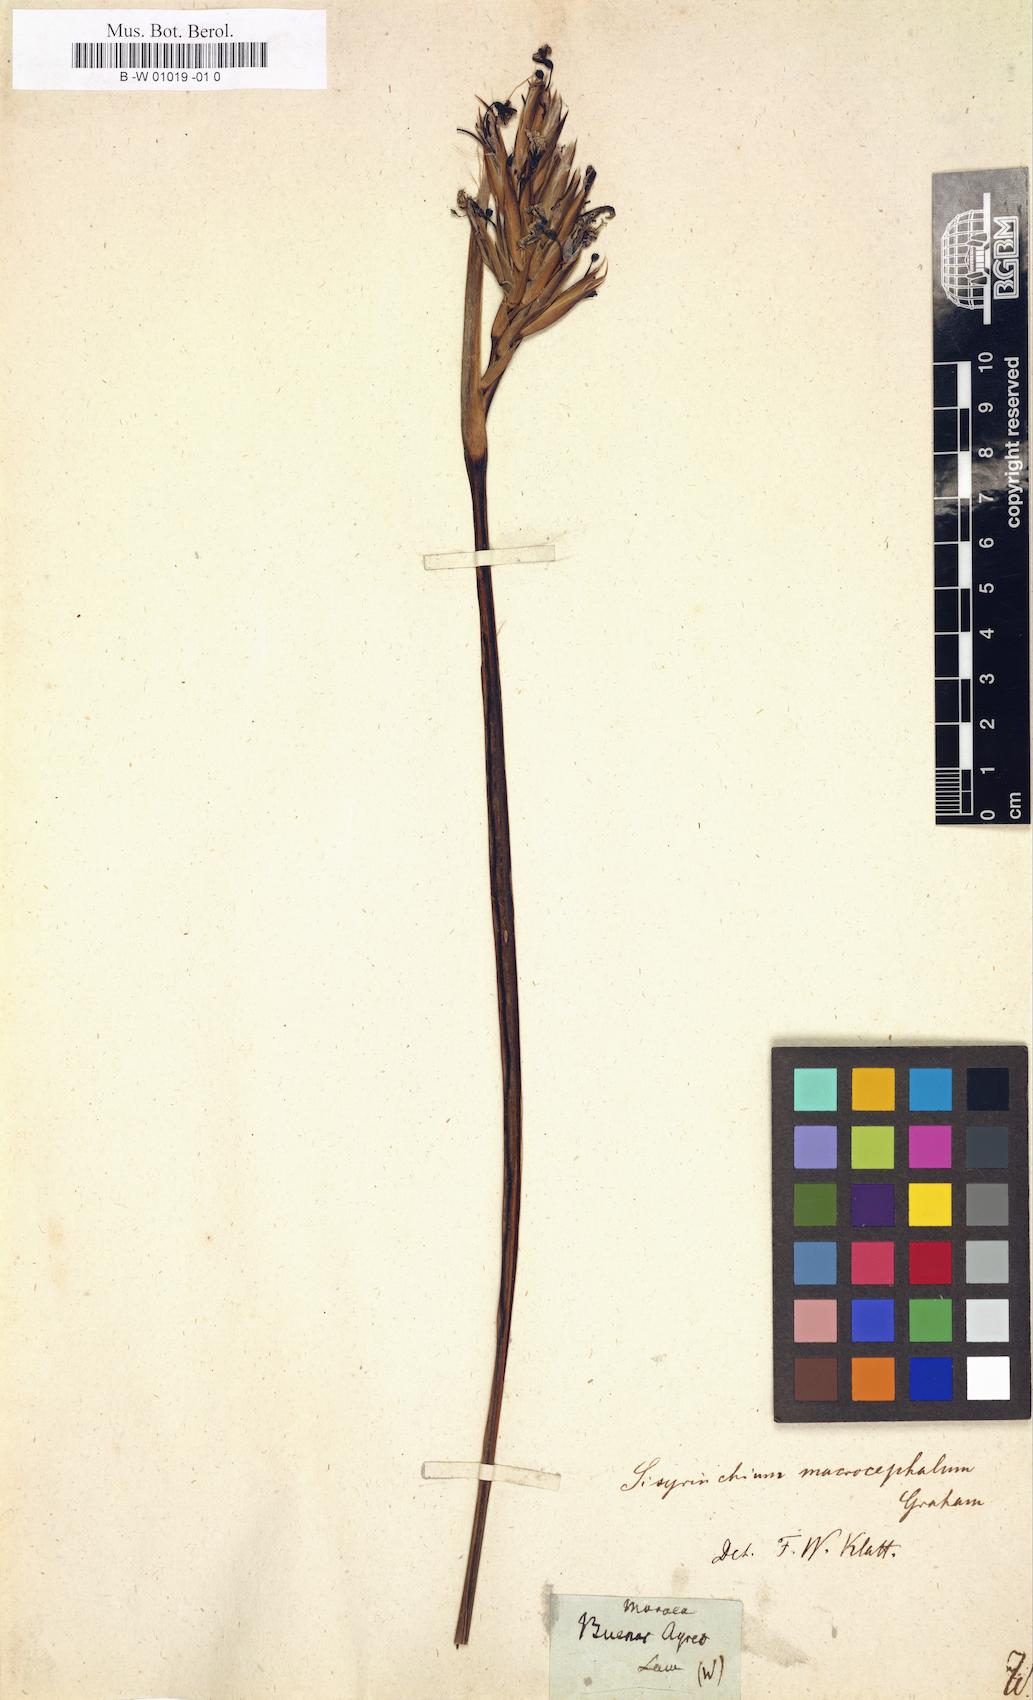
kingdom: Plantae
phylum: Tracheophyta
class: Liliopsida
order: Asparagales
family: Iridaceae
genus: Moraea
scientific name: Moraea
